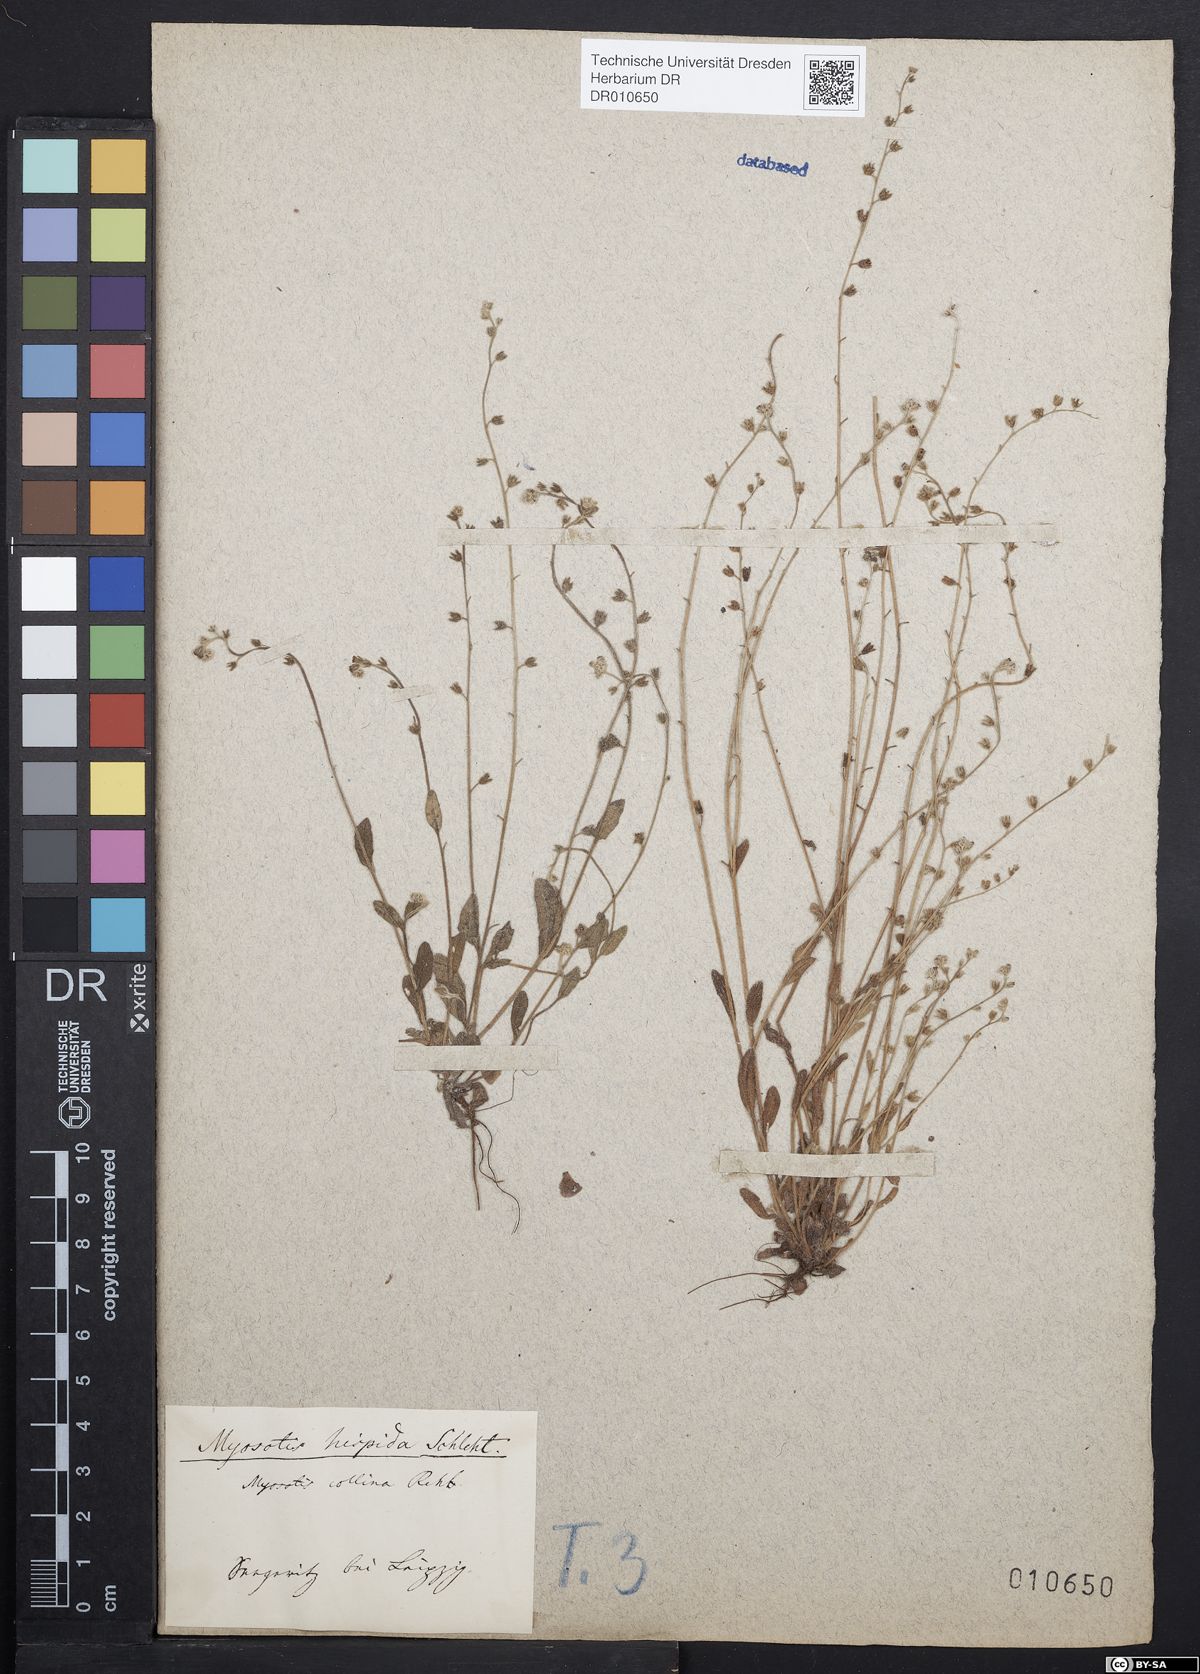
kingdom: Plantae
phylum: Tracheophyta
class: Magnoliopsida
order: Boraginales
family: Boraginaceae
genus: Myosotis
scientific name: Myosotis ramosissima
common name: Early forget-me-not
